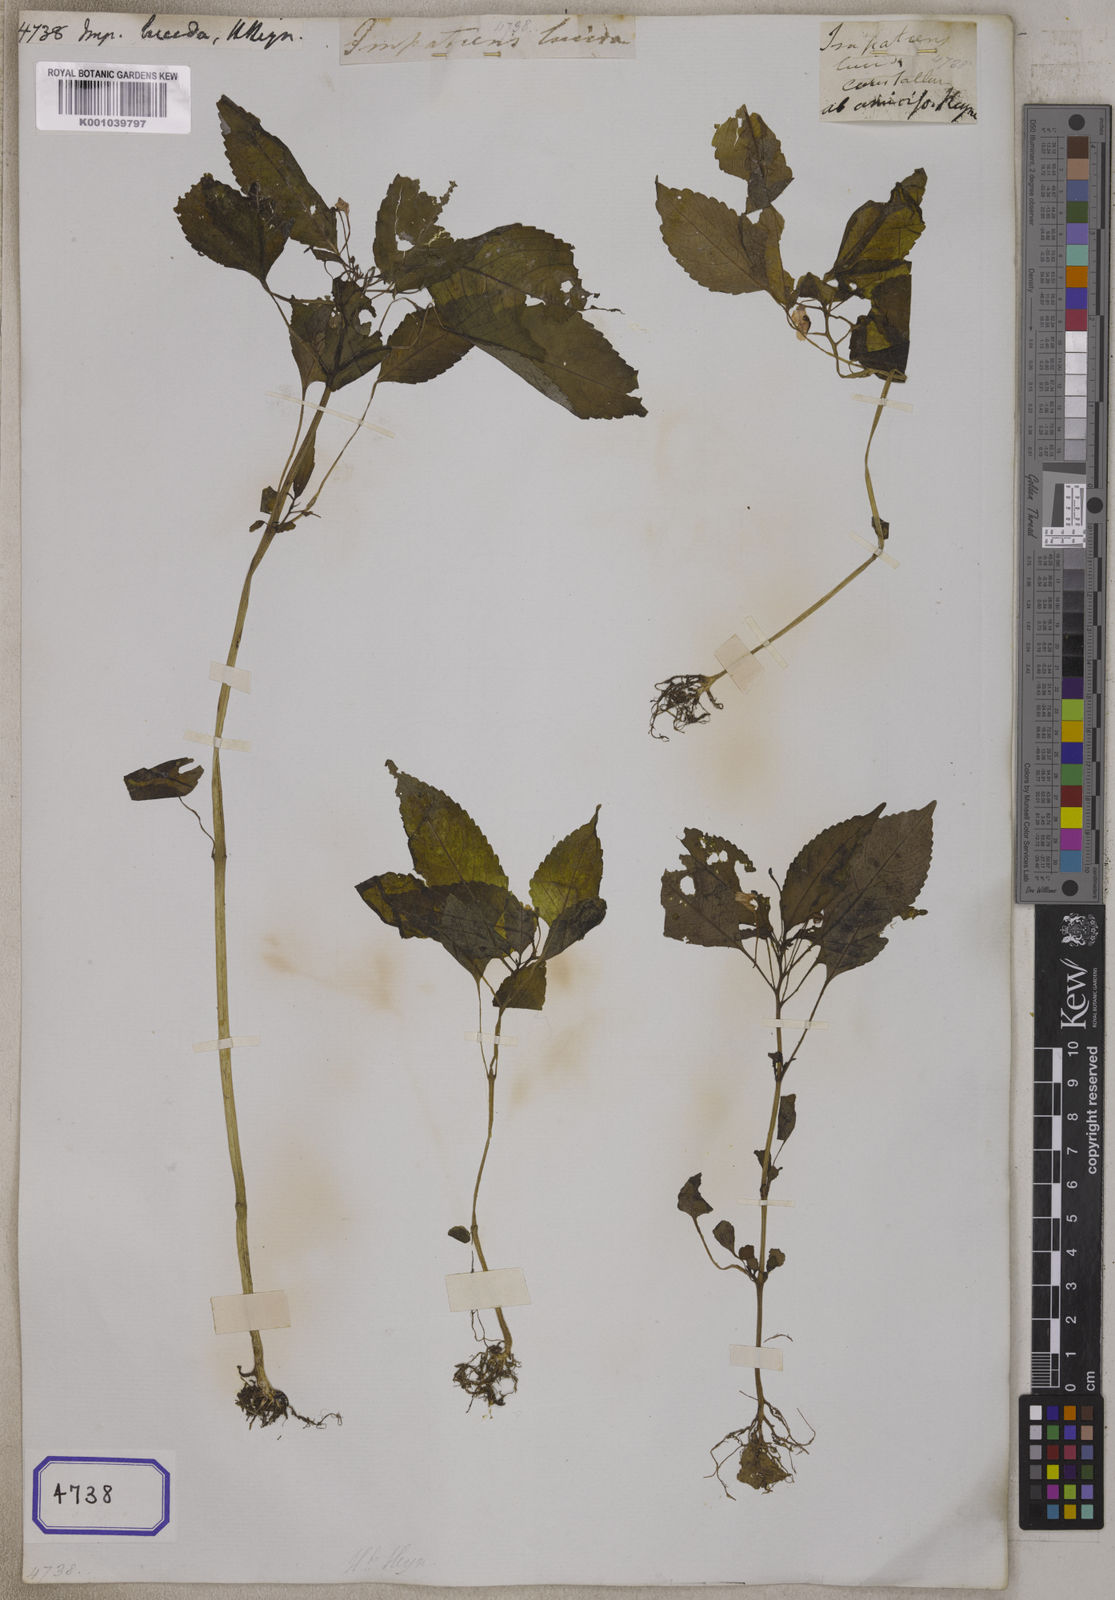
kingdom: Plantae
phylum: Tracheophyta
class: Magnoliopsida
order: Ericales
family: Balsaminaceae
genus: Impatiens
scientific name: Impatiens
